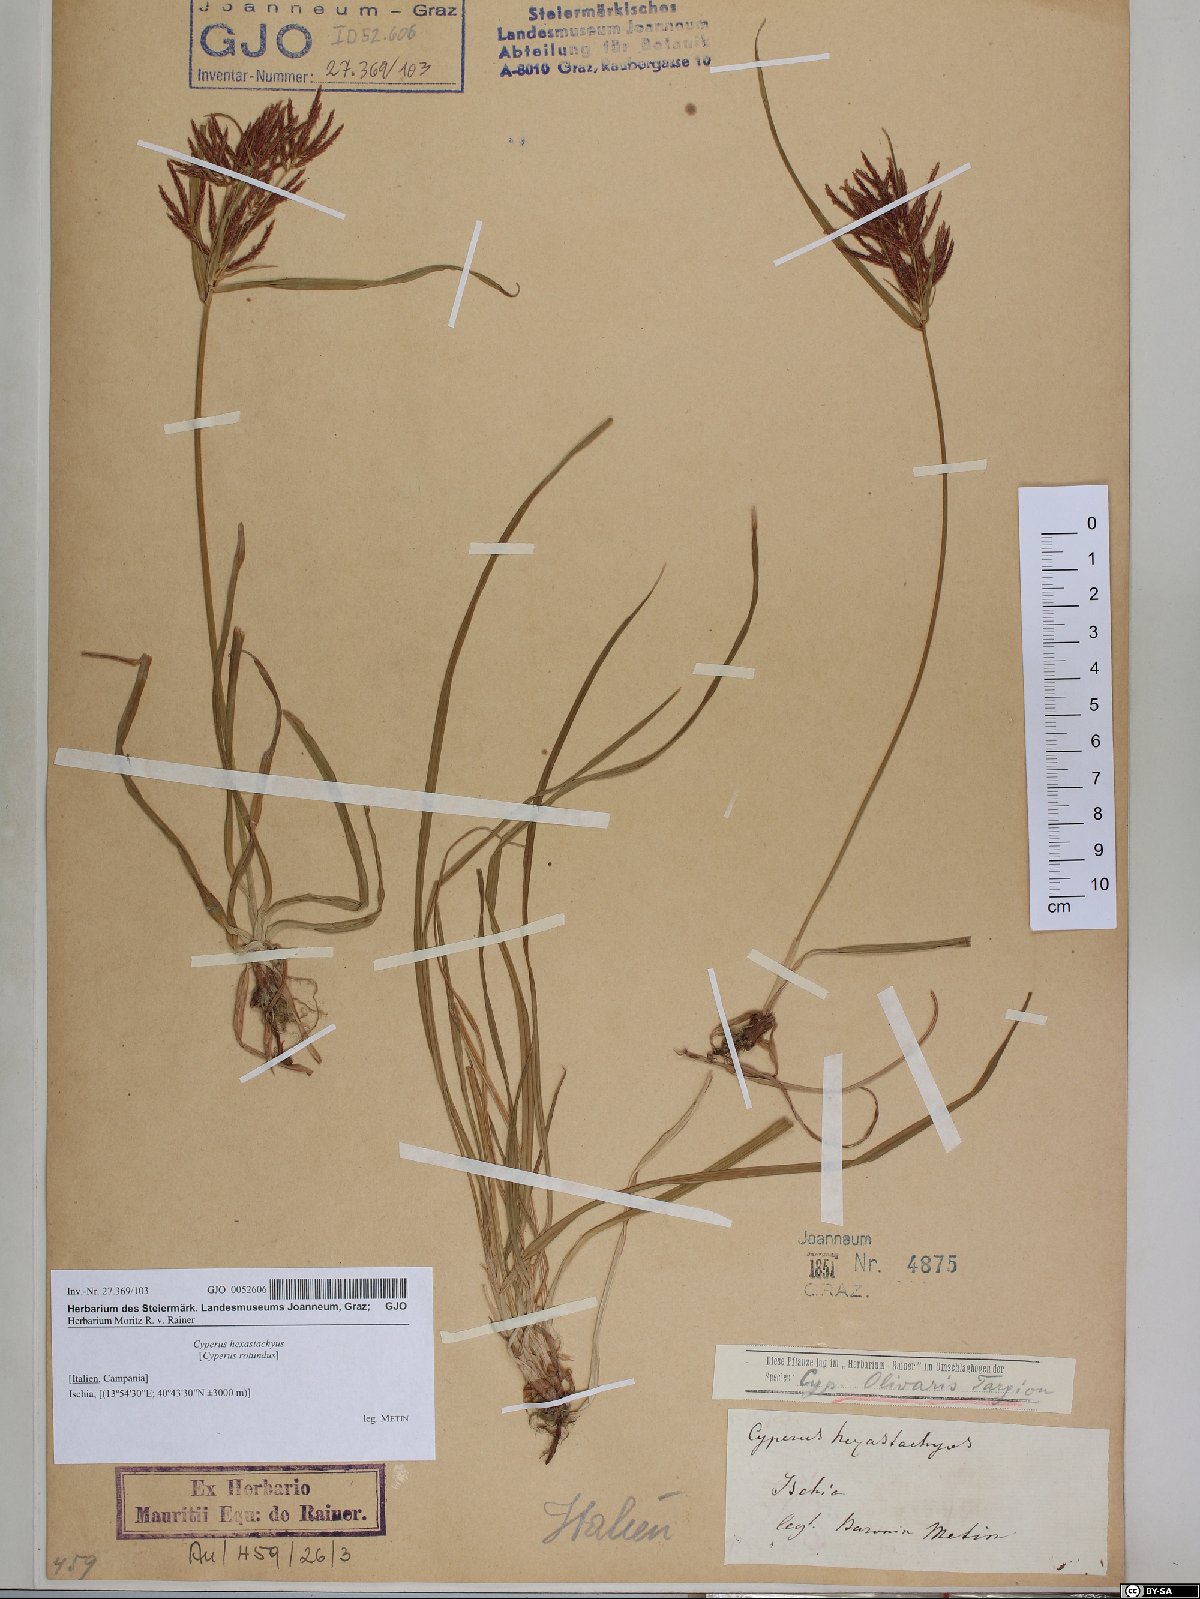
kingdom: Plantae
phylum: Tracheophyta
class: Liliopsida
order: Poales
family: Cyperaceae
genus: Cyperus
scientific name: Cyperus rotundus
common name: Nutgrass
